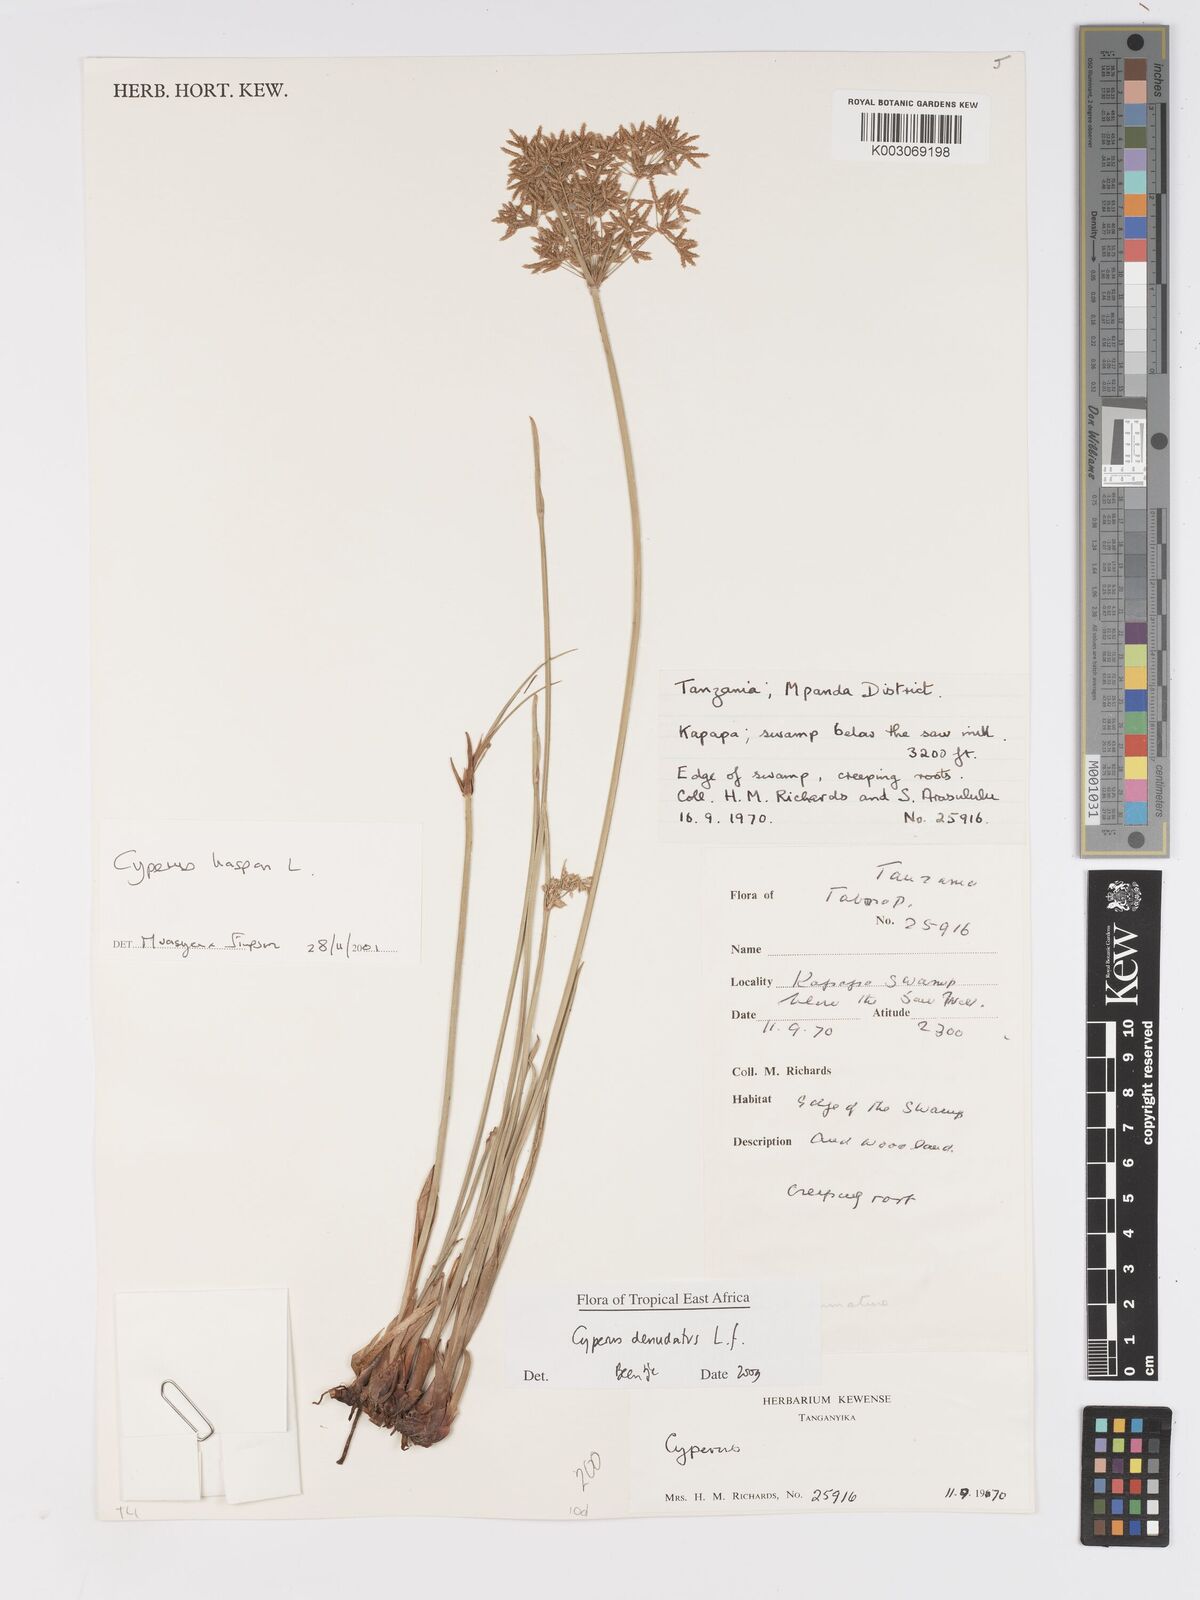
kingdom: Plantae
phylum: Tracheophyta
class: Liliopsida
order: Poales
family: Cyperaceae
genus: Cyperus
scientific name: Cyperus denudatus
